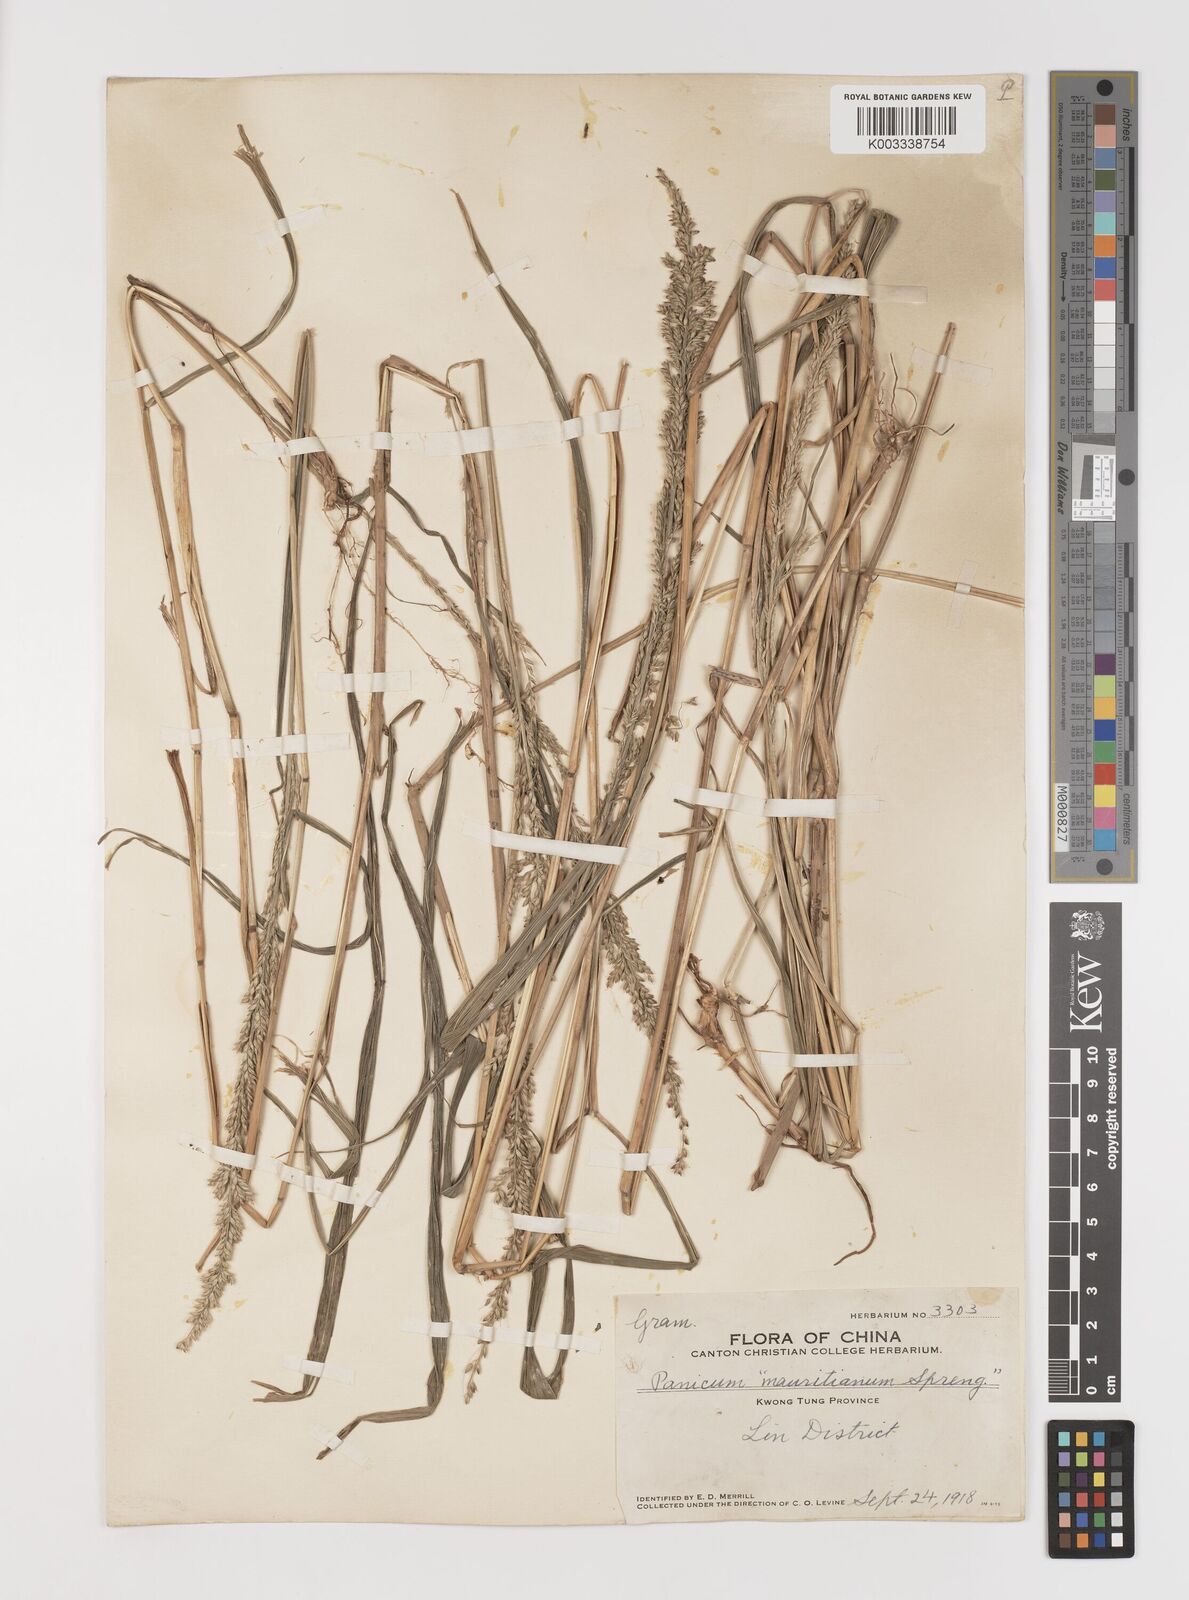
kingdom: Plantae
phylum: Tracheophyta
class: Liliopsida
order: Poales
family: Poaceae
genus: Setaria
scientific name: Setaria plicata
